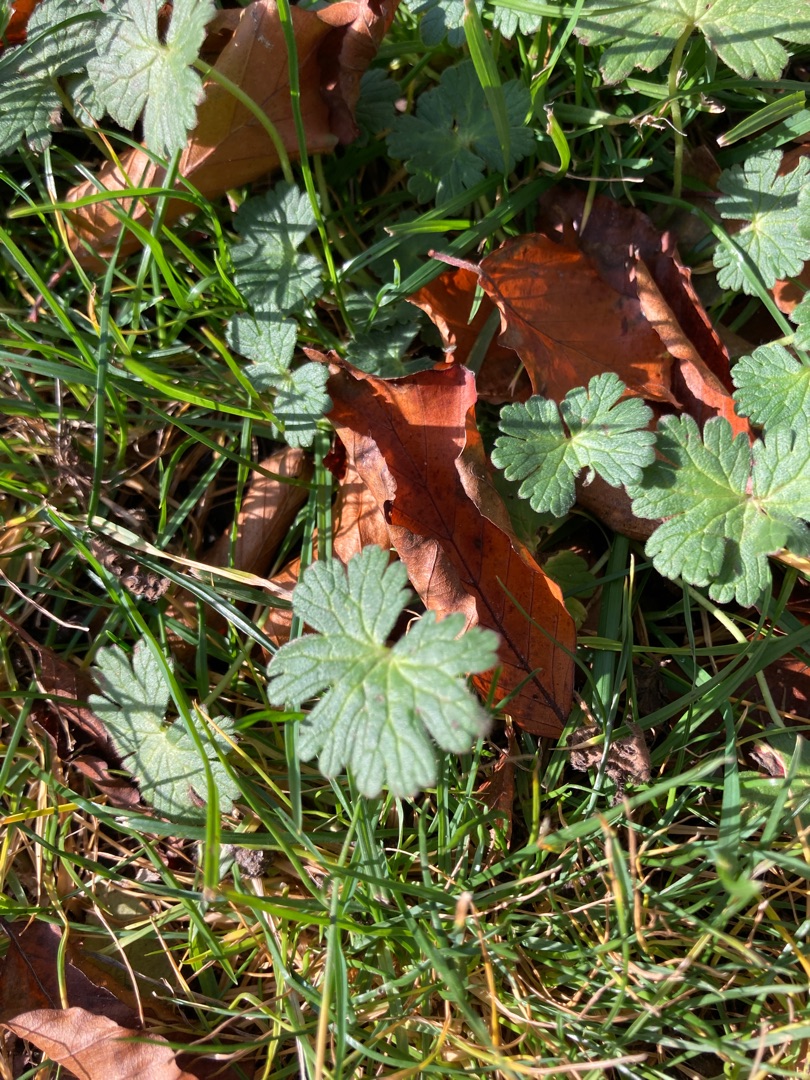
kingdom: Plantae
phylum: Tracheophyta
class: Magnoliopsida
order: Geraniales
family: Geraniaceae
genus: Geranium
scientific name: Geranium
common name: Storkenæbslægten
